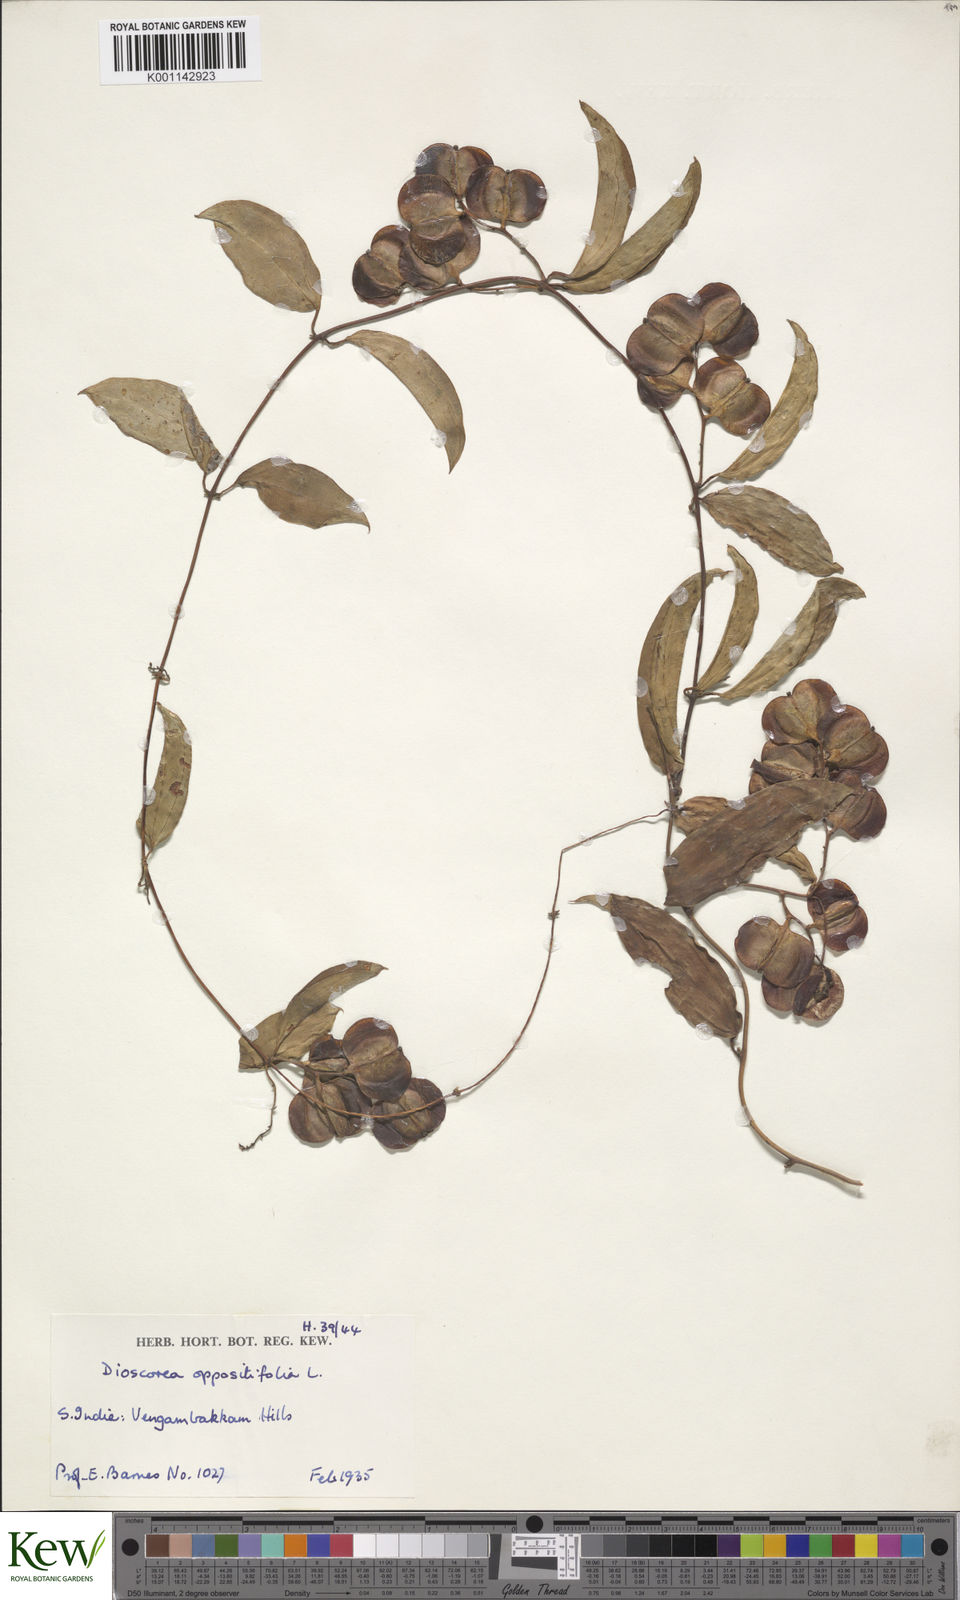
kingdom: Plantae
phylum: Tracheophyta
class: Liliopsida
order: Dioscoreales
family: Dioscoreaceae
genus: Dioscorea
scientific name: Dioscorea oppositifolia
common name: Chinese yam
